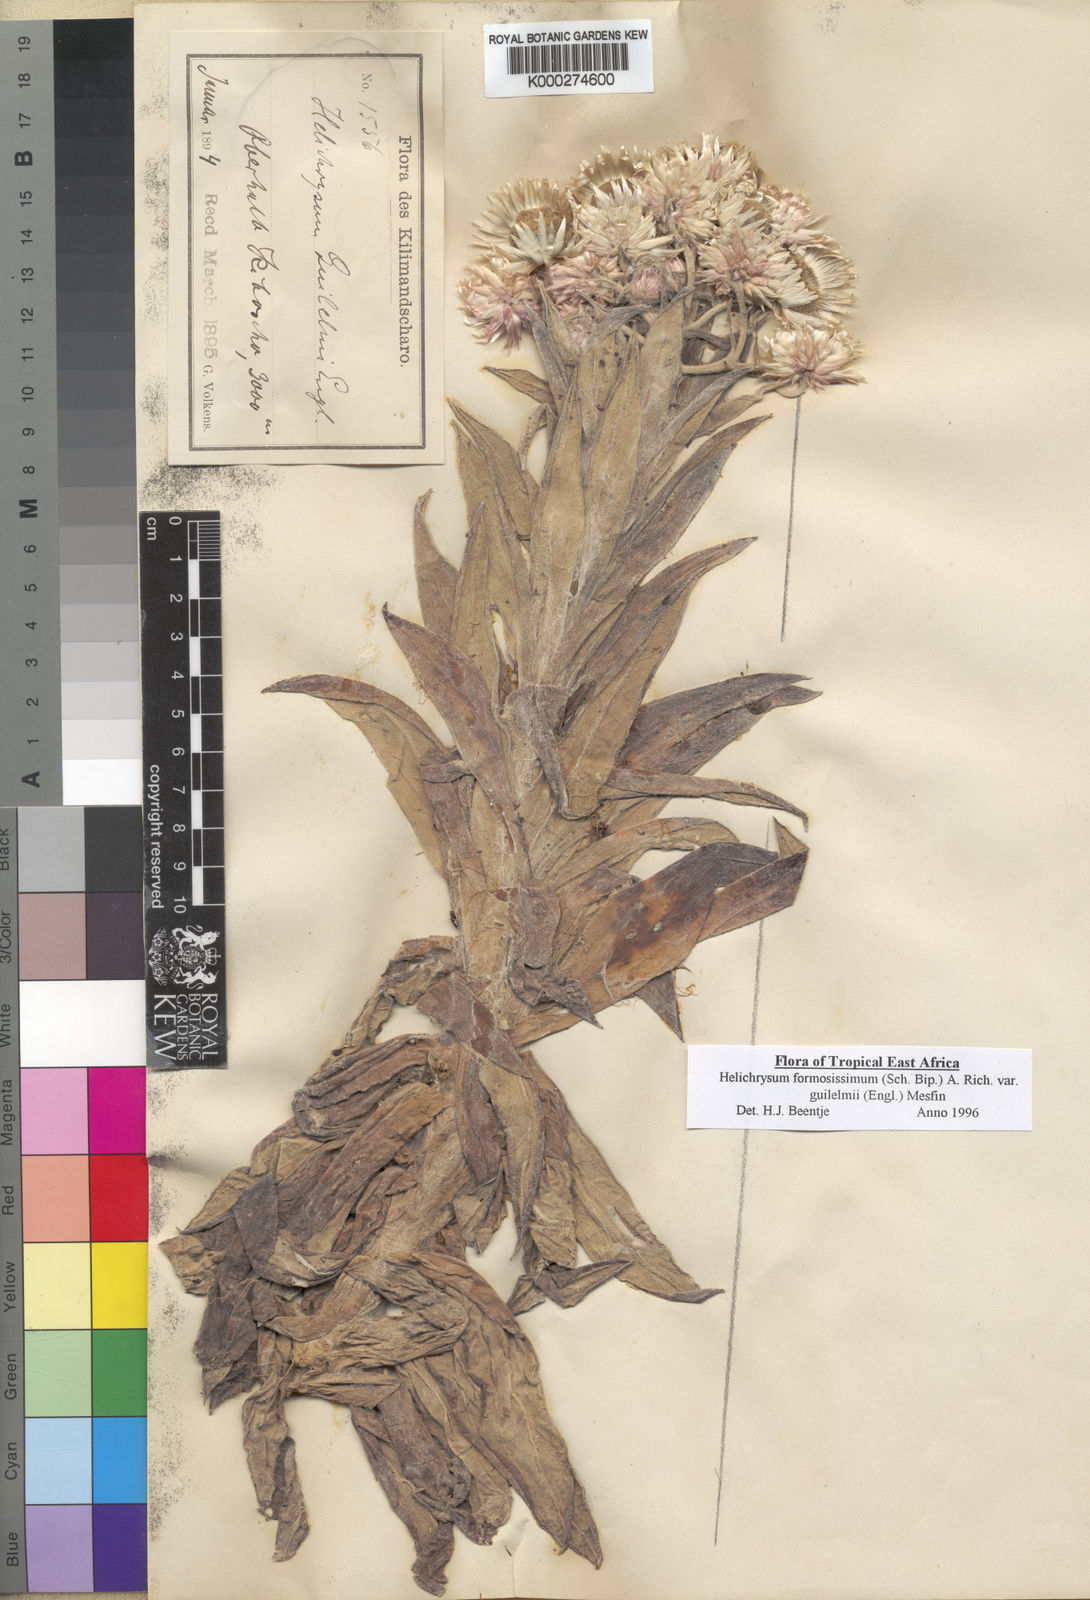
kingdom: Plantae
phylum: Tracheophyta
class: Magnoliopsida
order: Asterales
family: Asteraceae
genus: Helichrysum
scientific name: Helichrysum formosissimum
